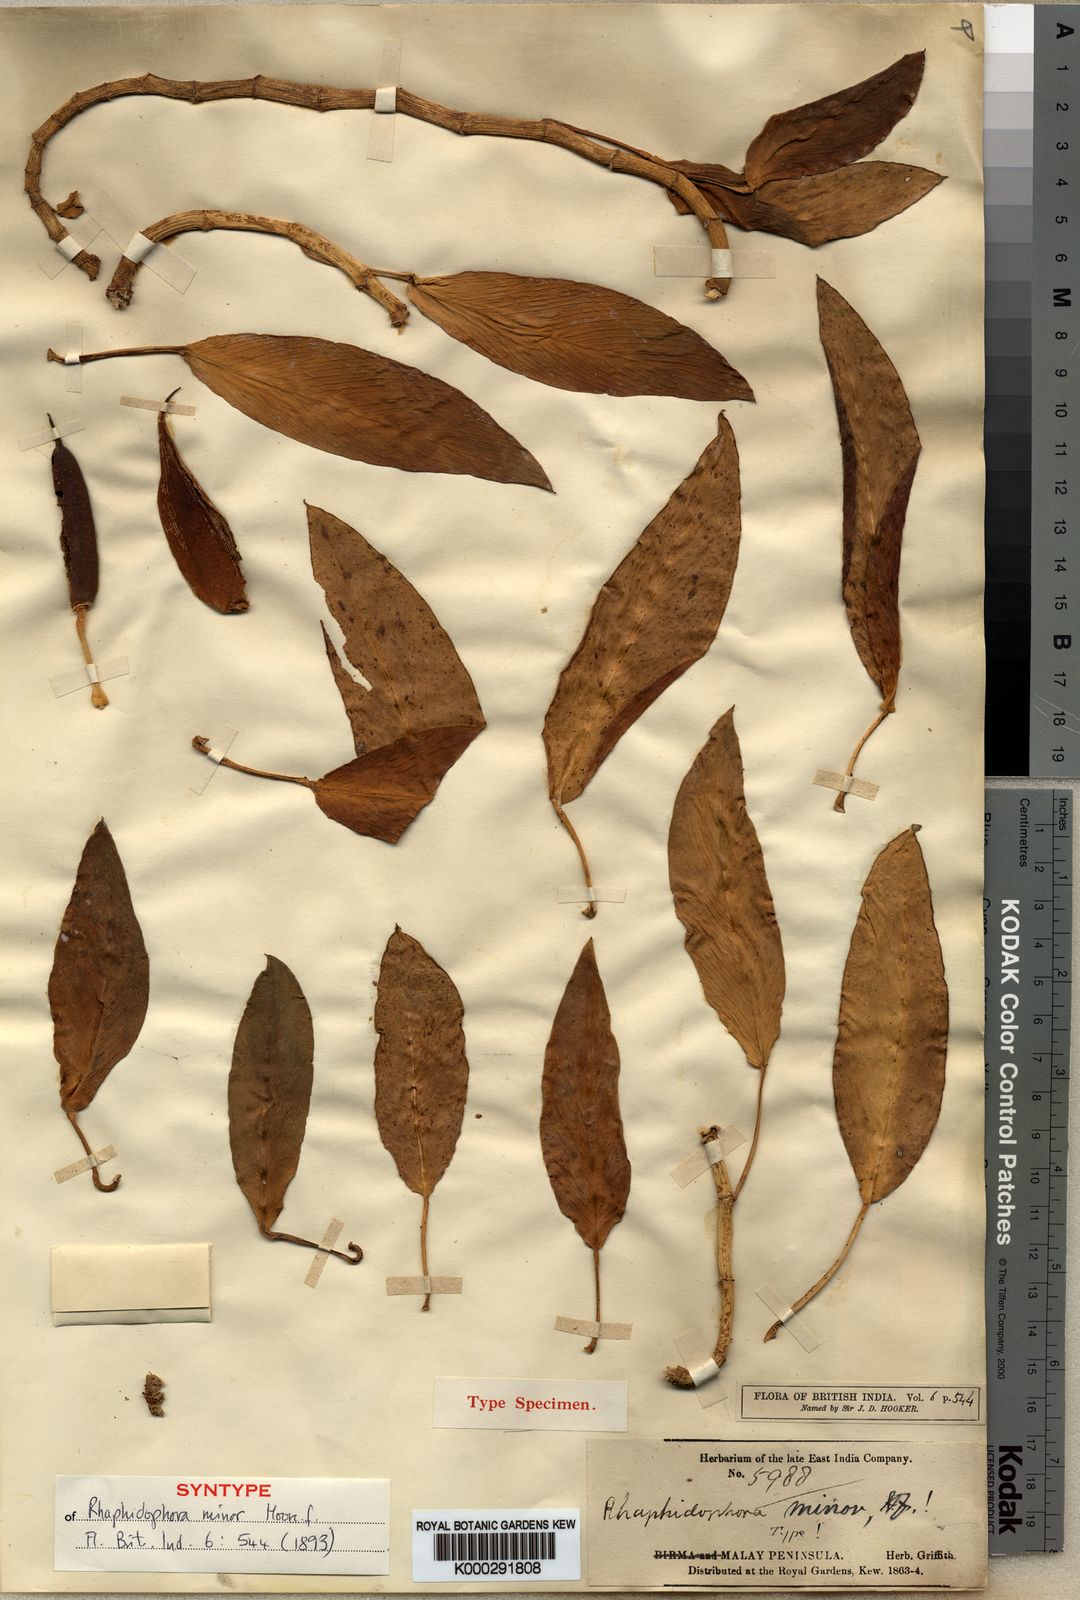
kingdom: Plantae
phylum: Tracheophyta
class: Liliopsida
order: Alismatales
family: Araceae
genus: Rhaphidophora
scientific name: Rhaphidophora minor
